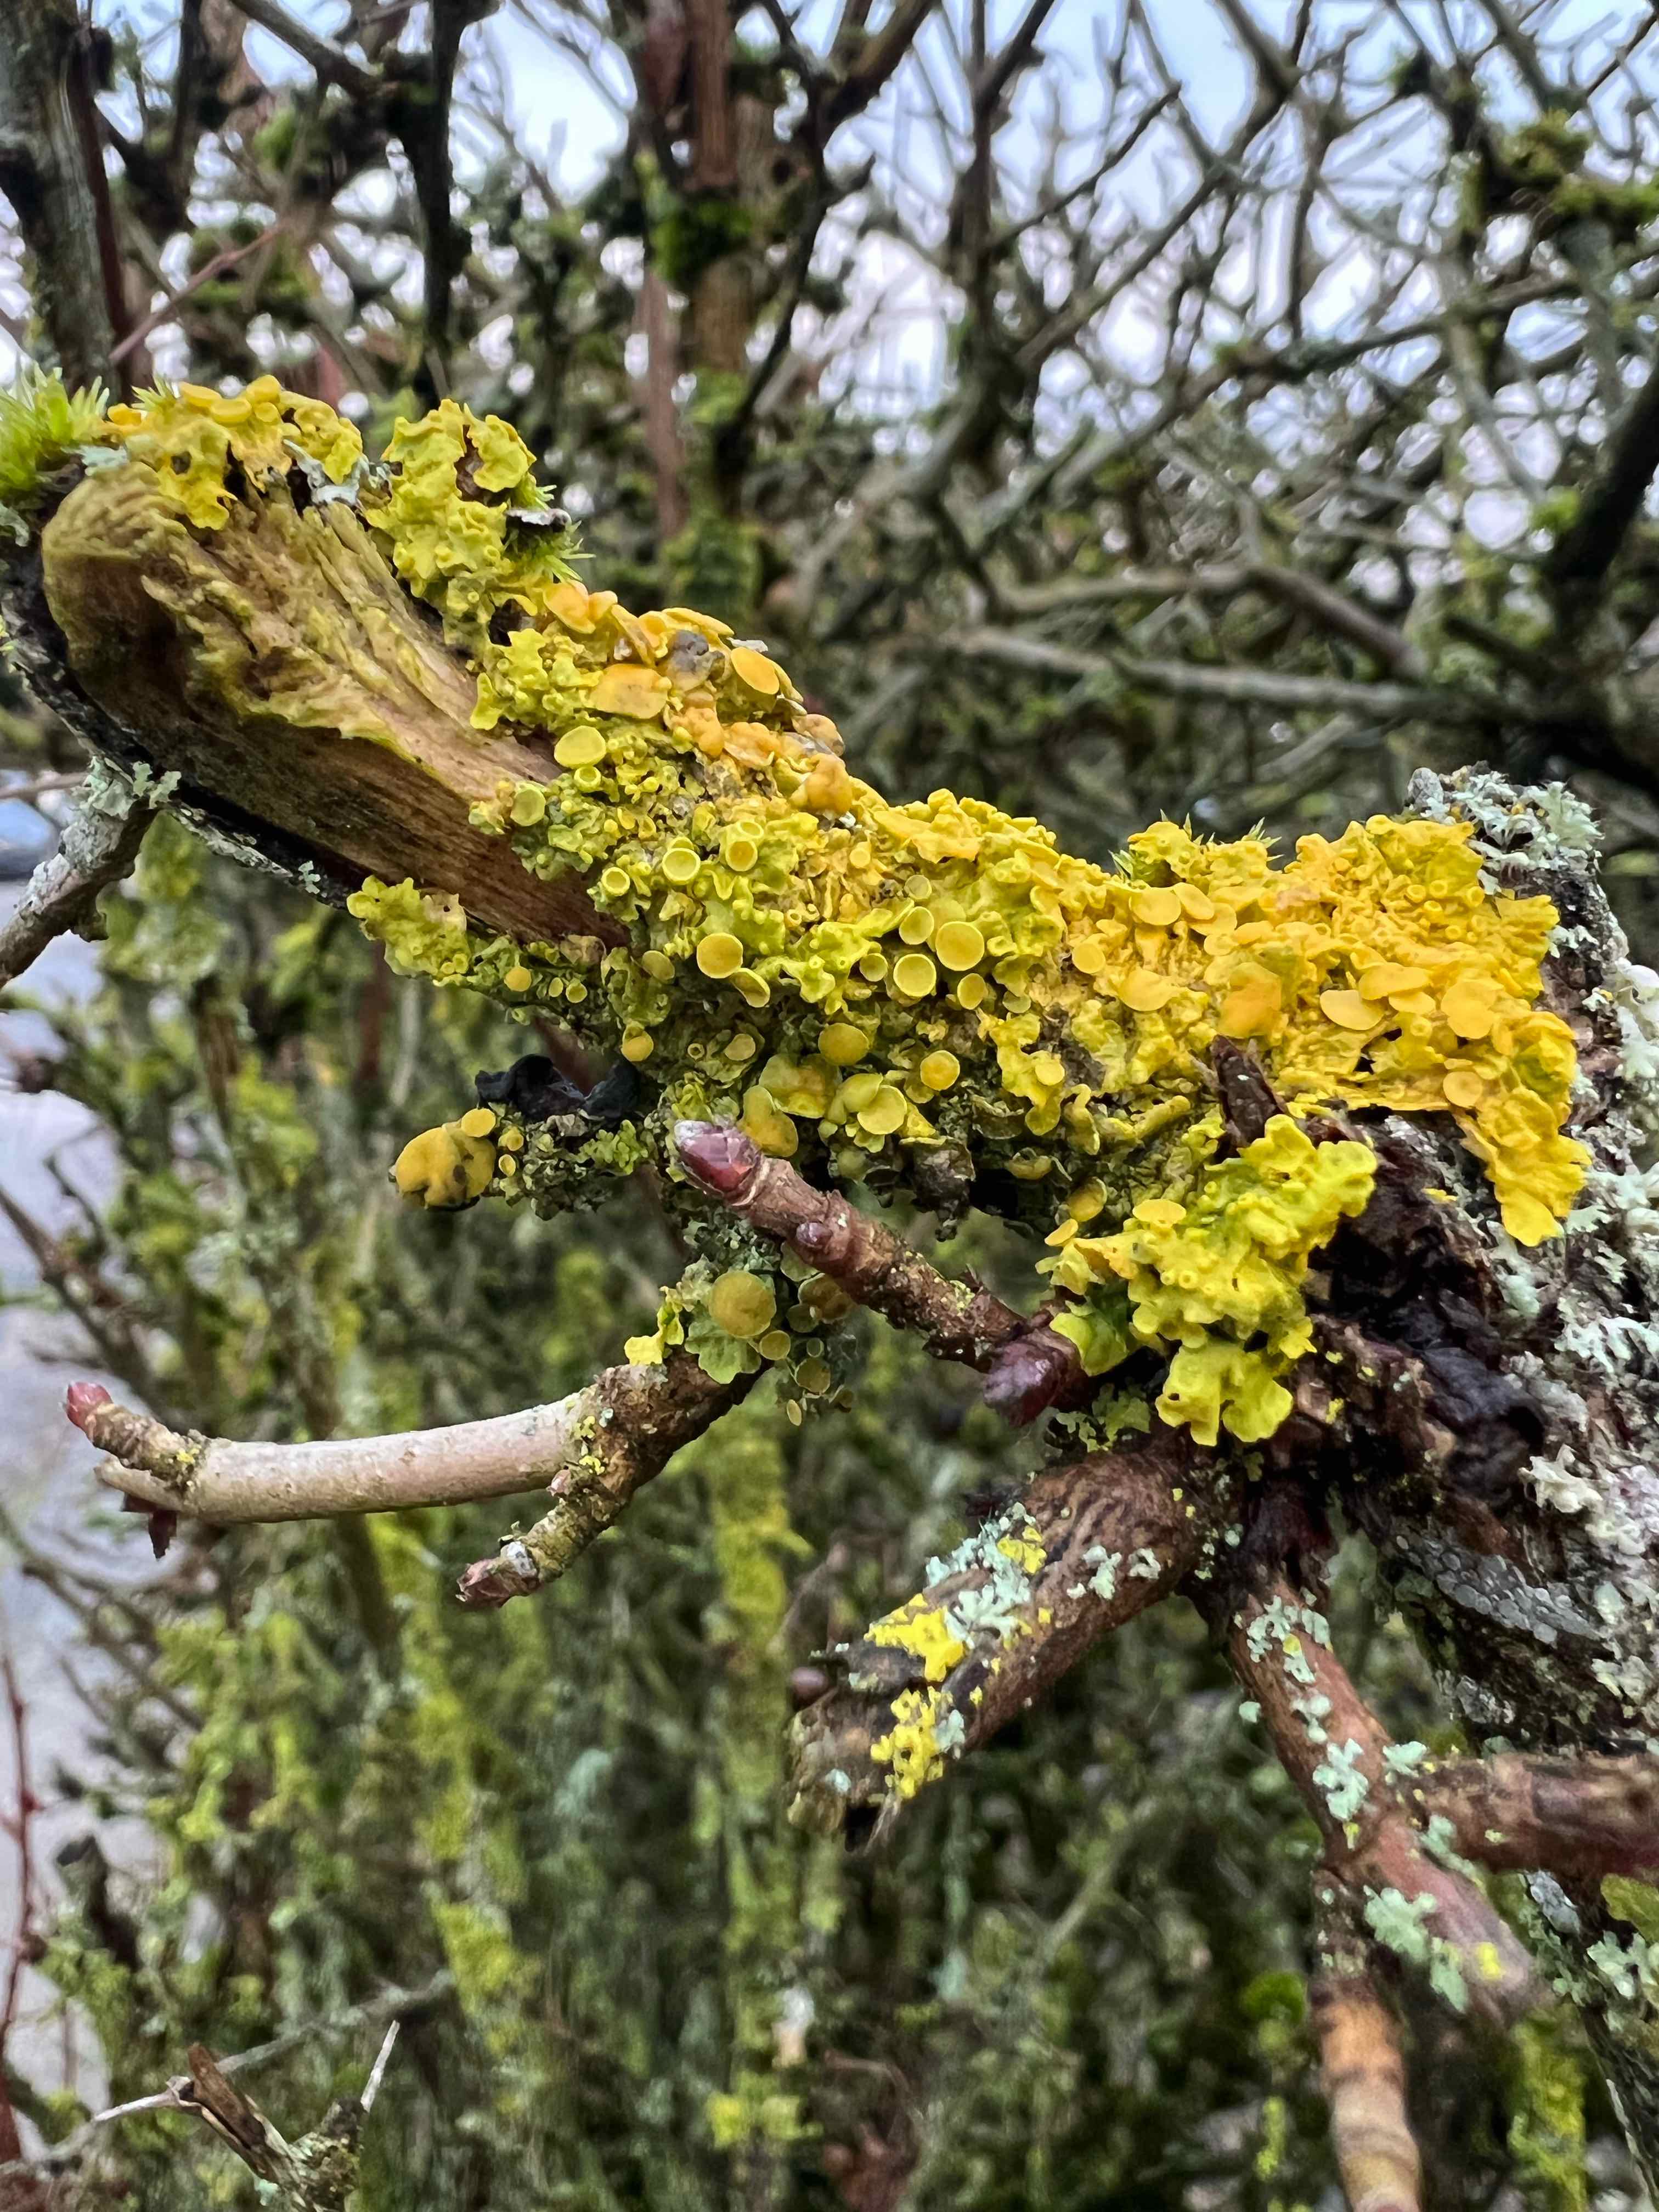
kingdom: Fungi
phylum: Ascomycota
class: Lecanoromycetes
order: Teloschistales
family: Teloschistaceae
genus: Xanthoria
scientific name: Xanthoria parietina
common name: almindelig væggelav
